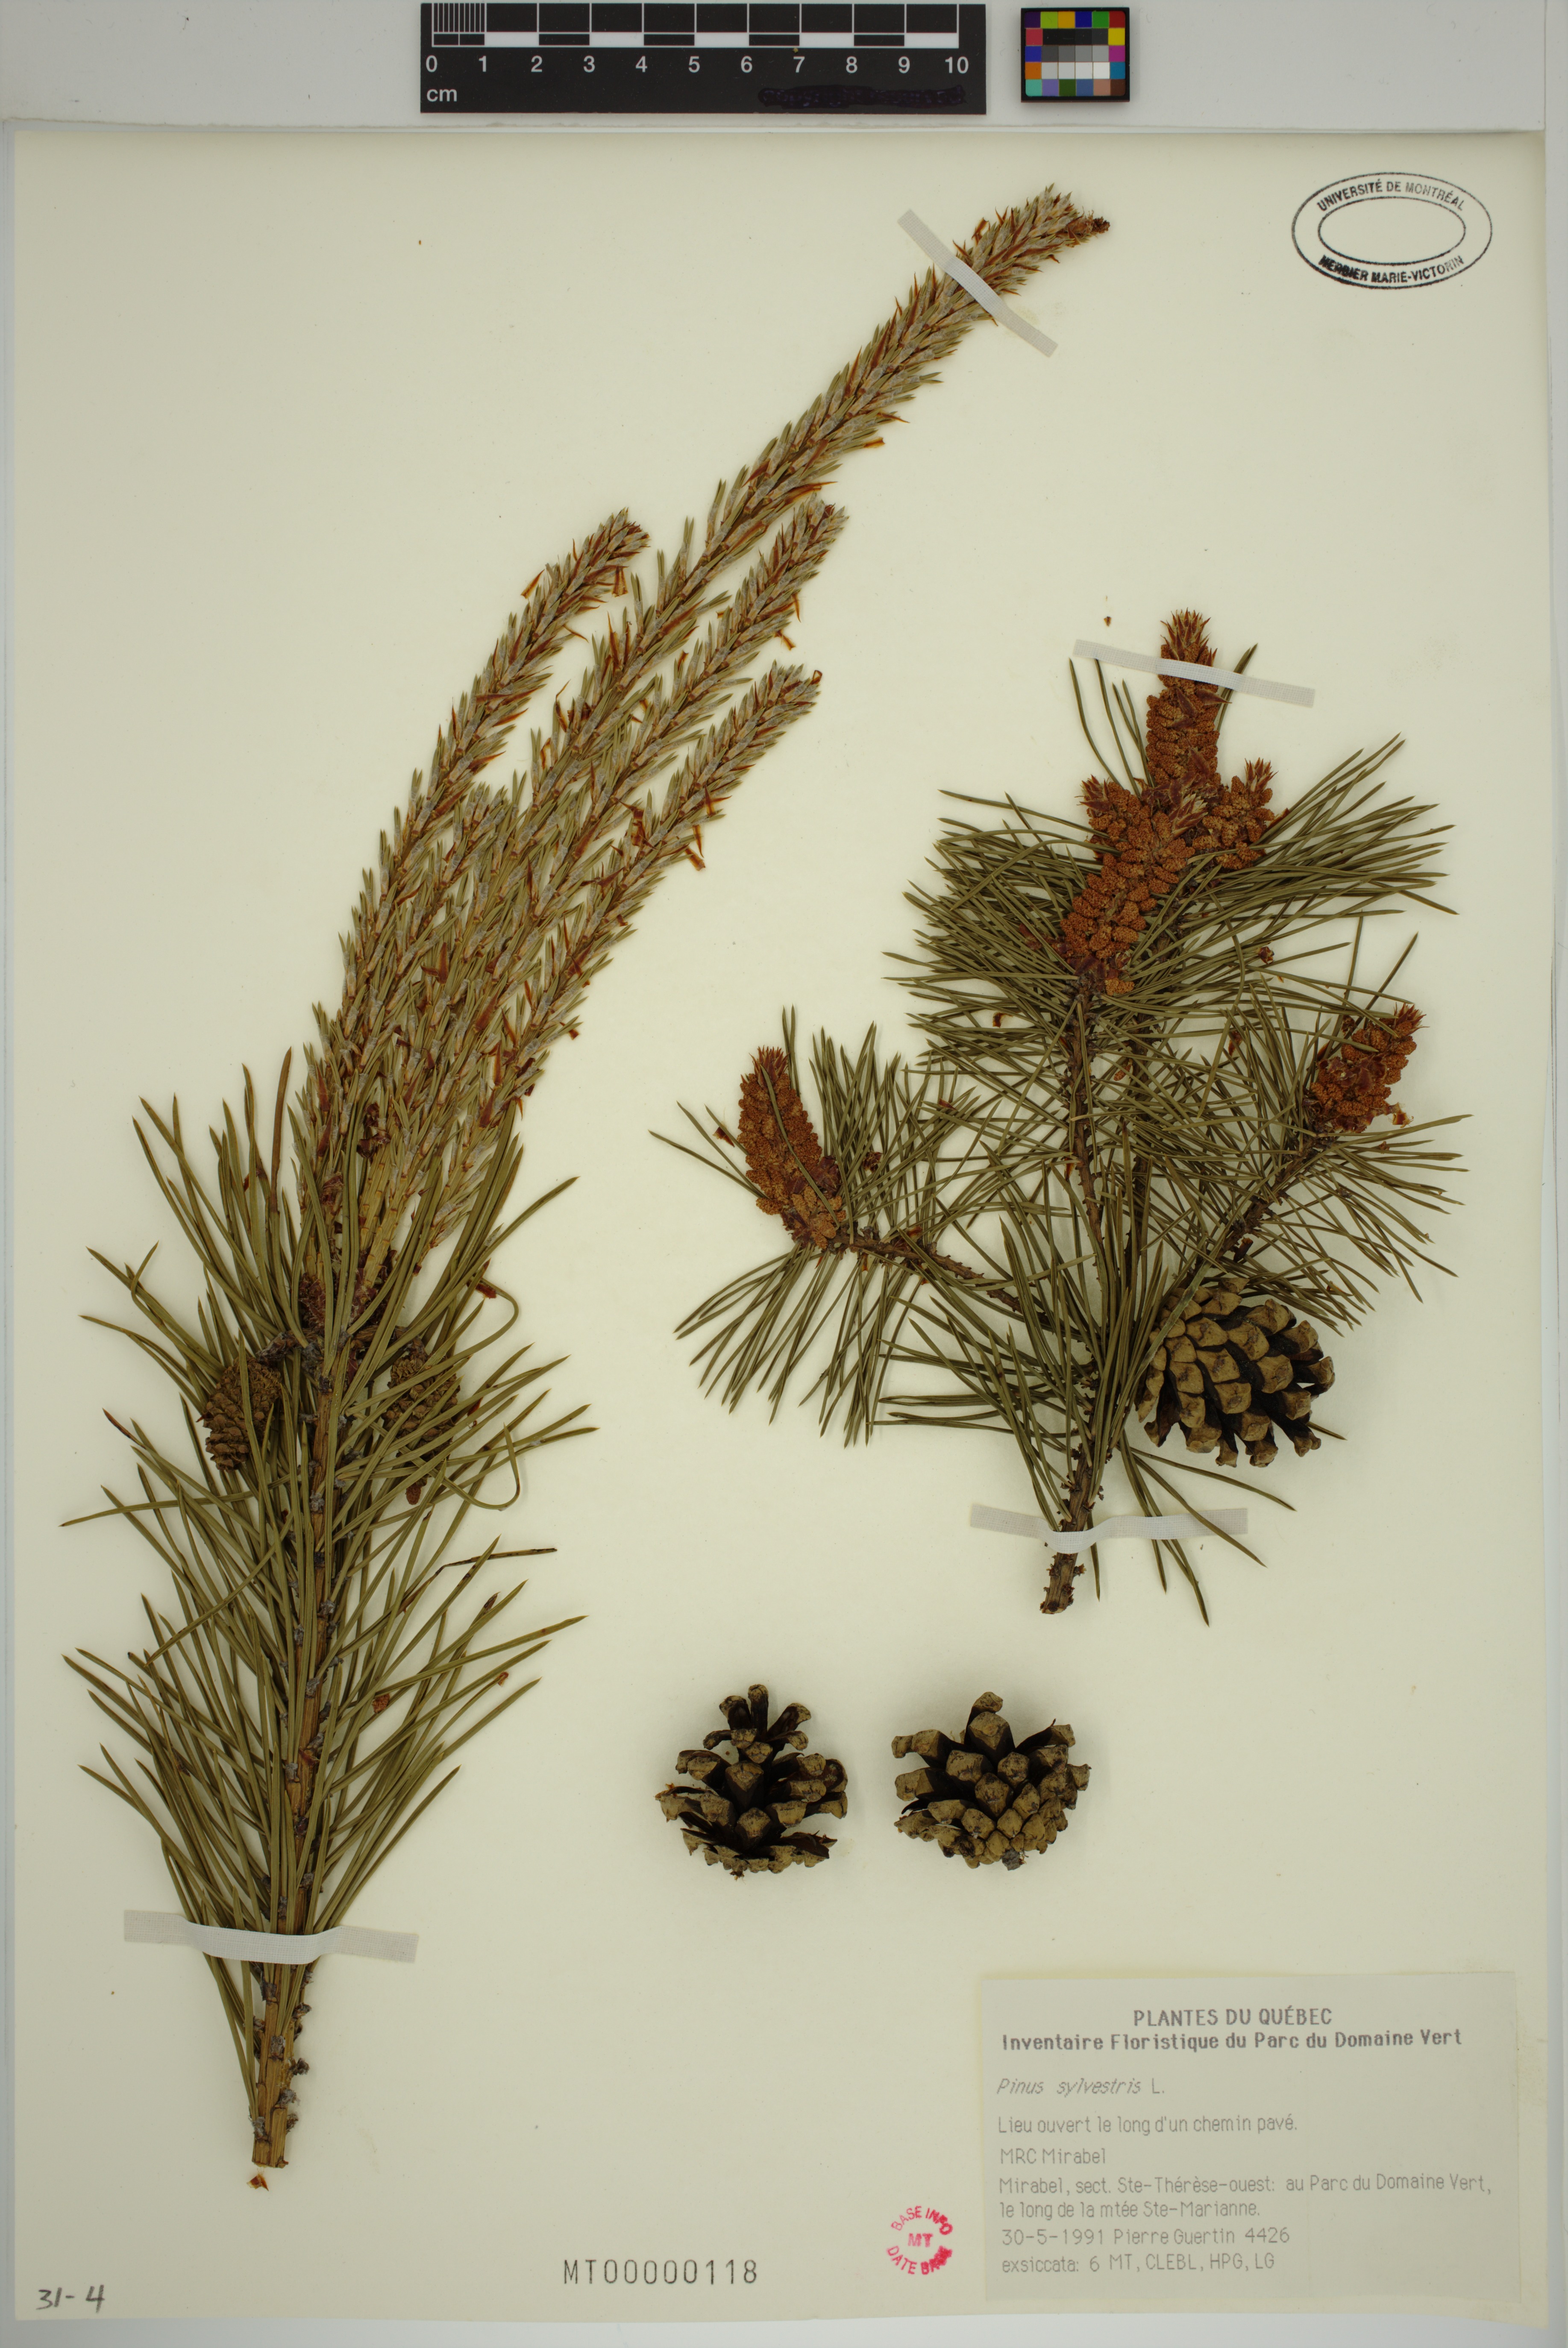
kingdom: Plantae
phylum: Tracheophyta
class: Pinopsida
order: Pinales
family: Pinaceae
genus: Pinus
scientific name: Pinus sylvestris
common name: Scots pine
